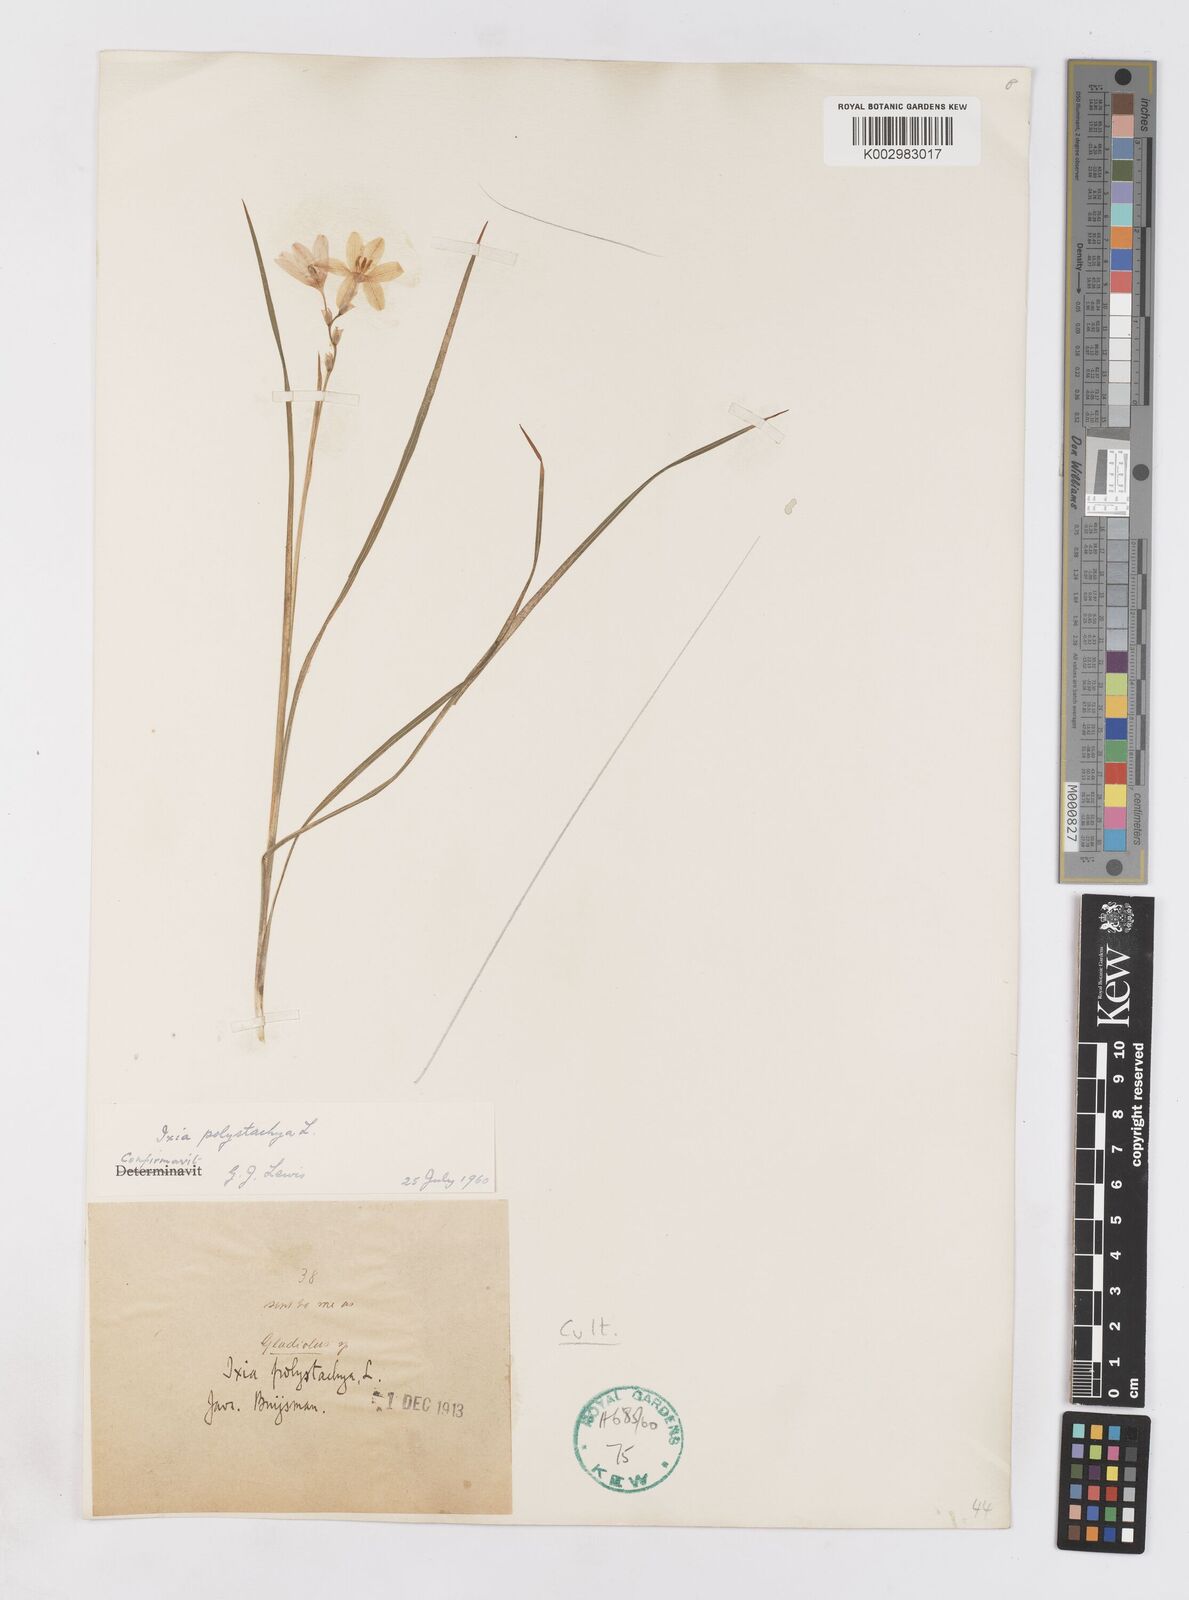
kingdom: Plantae
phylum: Tracheophyta
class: Liliopsida
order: Asparagales
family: Iridaceae
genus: Ixia
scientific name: Ixia polystachya
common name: White-and-yellow-flower cornlily
